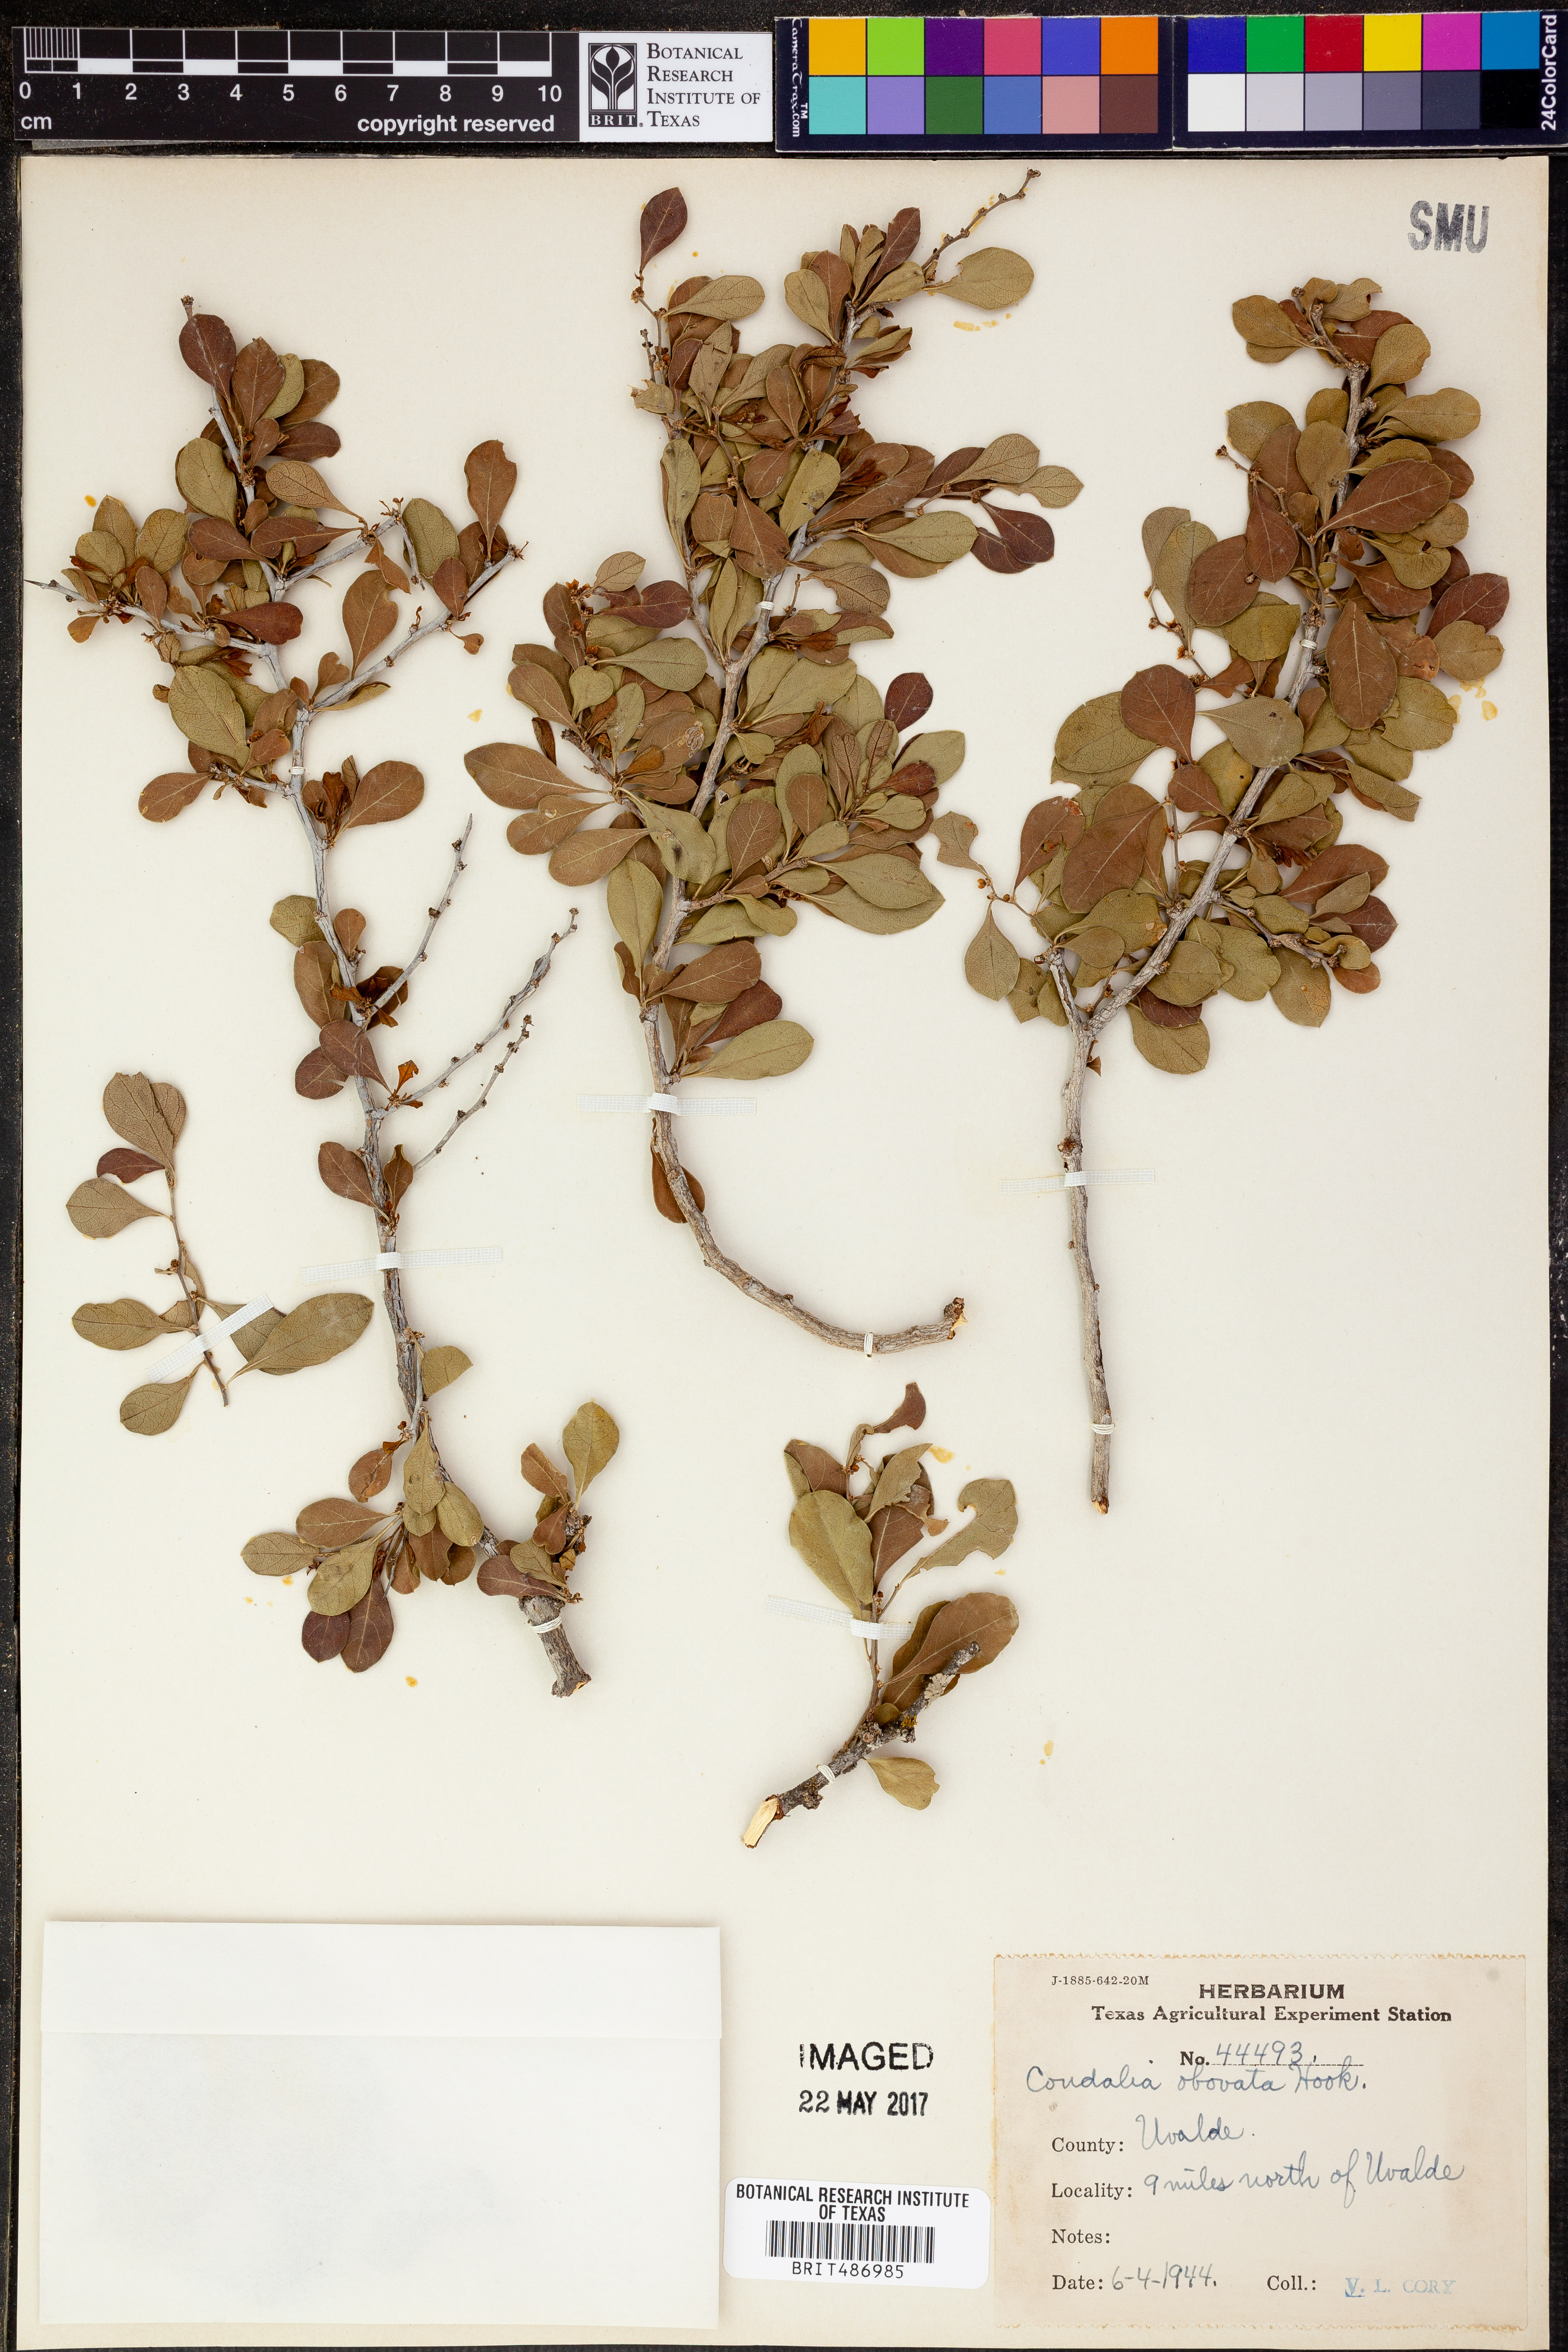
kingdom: Plantae
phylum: Tracheophyta
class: Magnoliopsida
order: Rosales
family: Rhamnaceae
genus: Condalia
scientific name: Condalia hookeri
